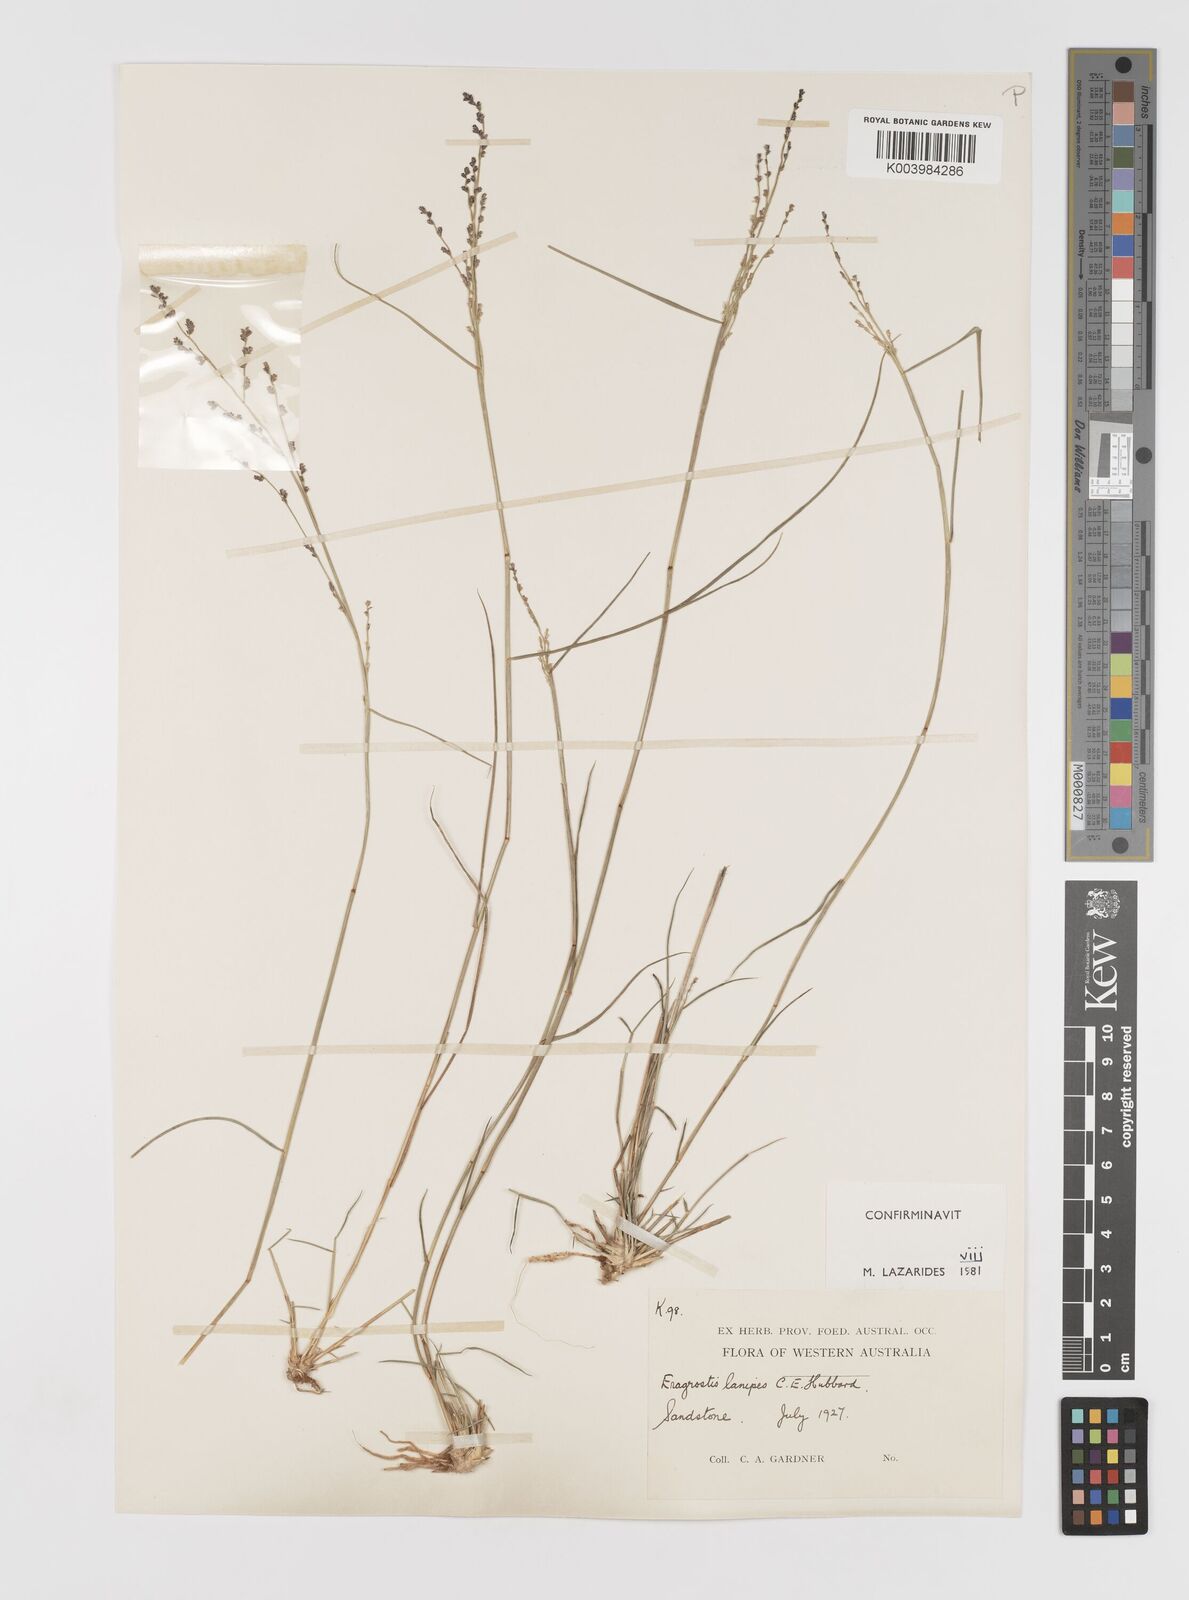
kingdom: Plantae
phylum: Tracheophyta
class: Liliopsida
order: Poales
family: Poaceae
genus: Eragrostis
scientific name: Eragrostis lanipes
